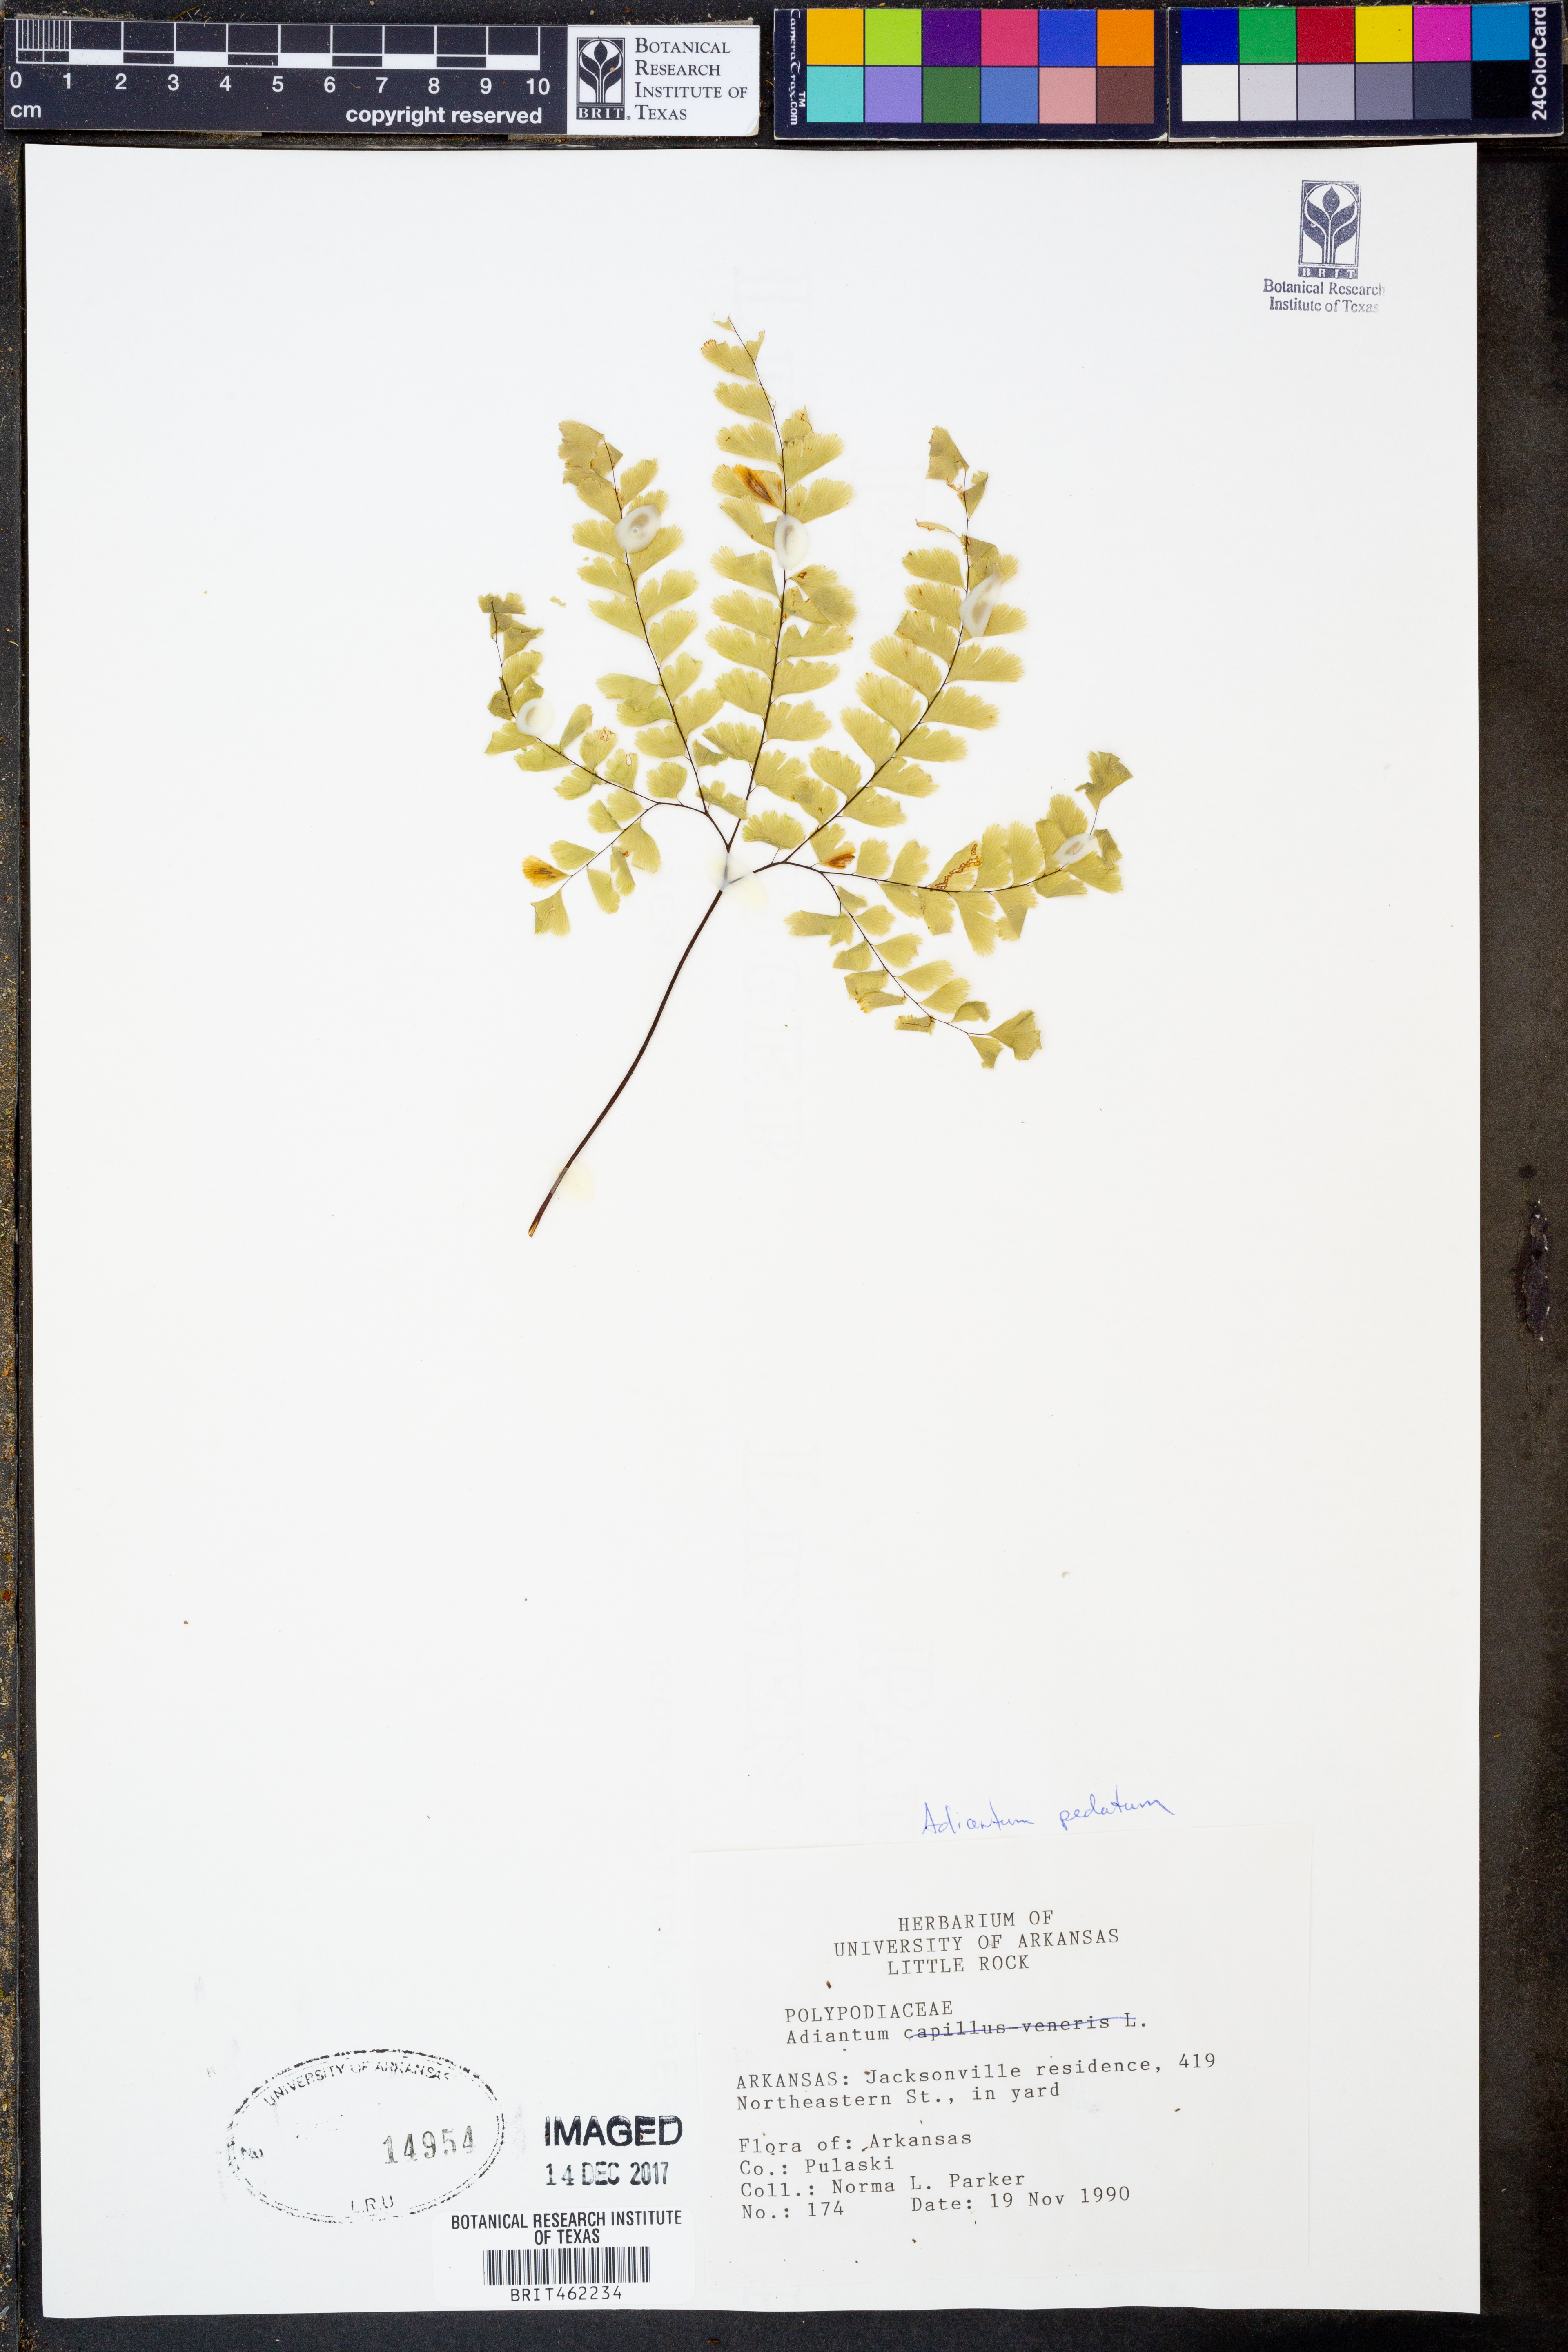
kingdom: Plantae
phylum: Tracheophyta
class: Polypodiopsida
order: Polypodiales
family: Pteridaceae
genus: Adiantum
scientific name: Adiantum pedatum
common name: Five-finger fern
